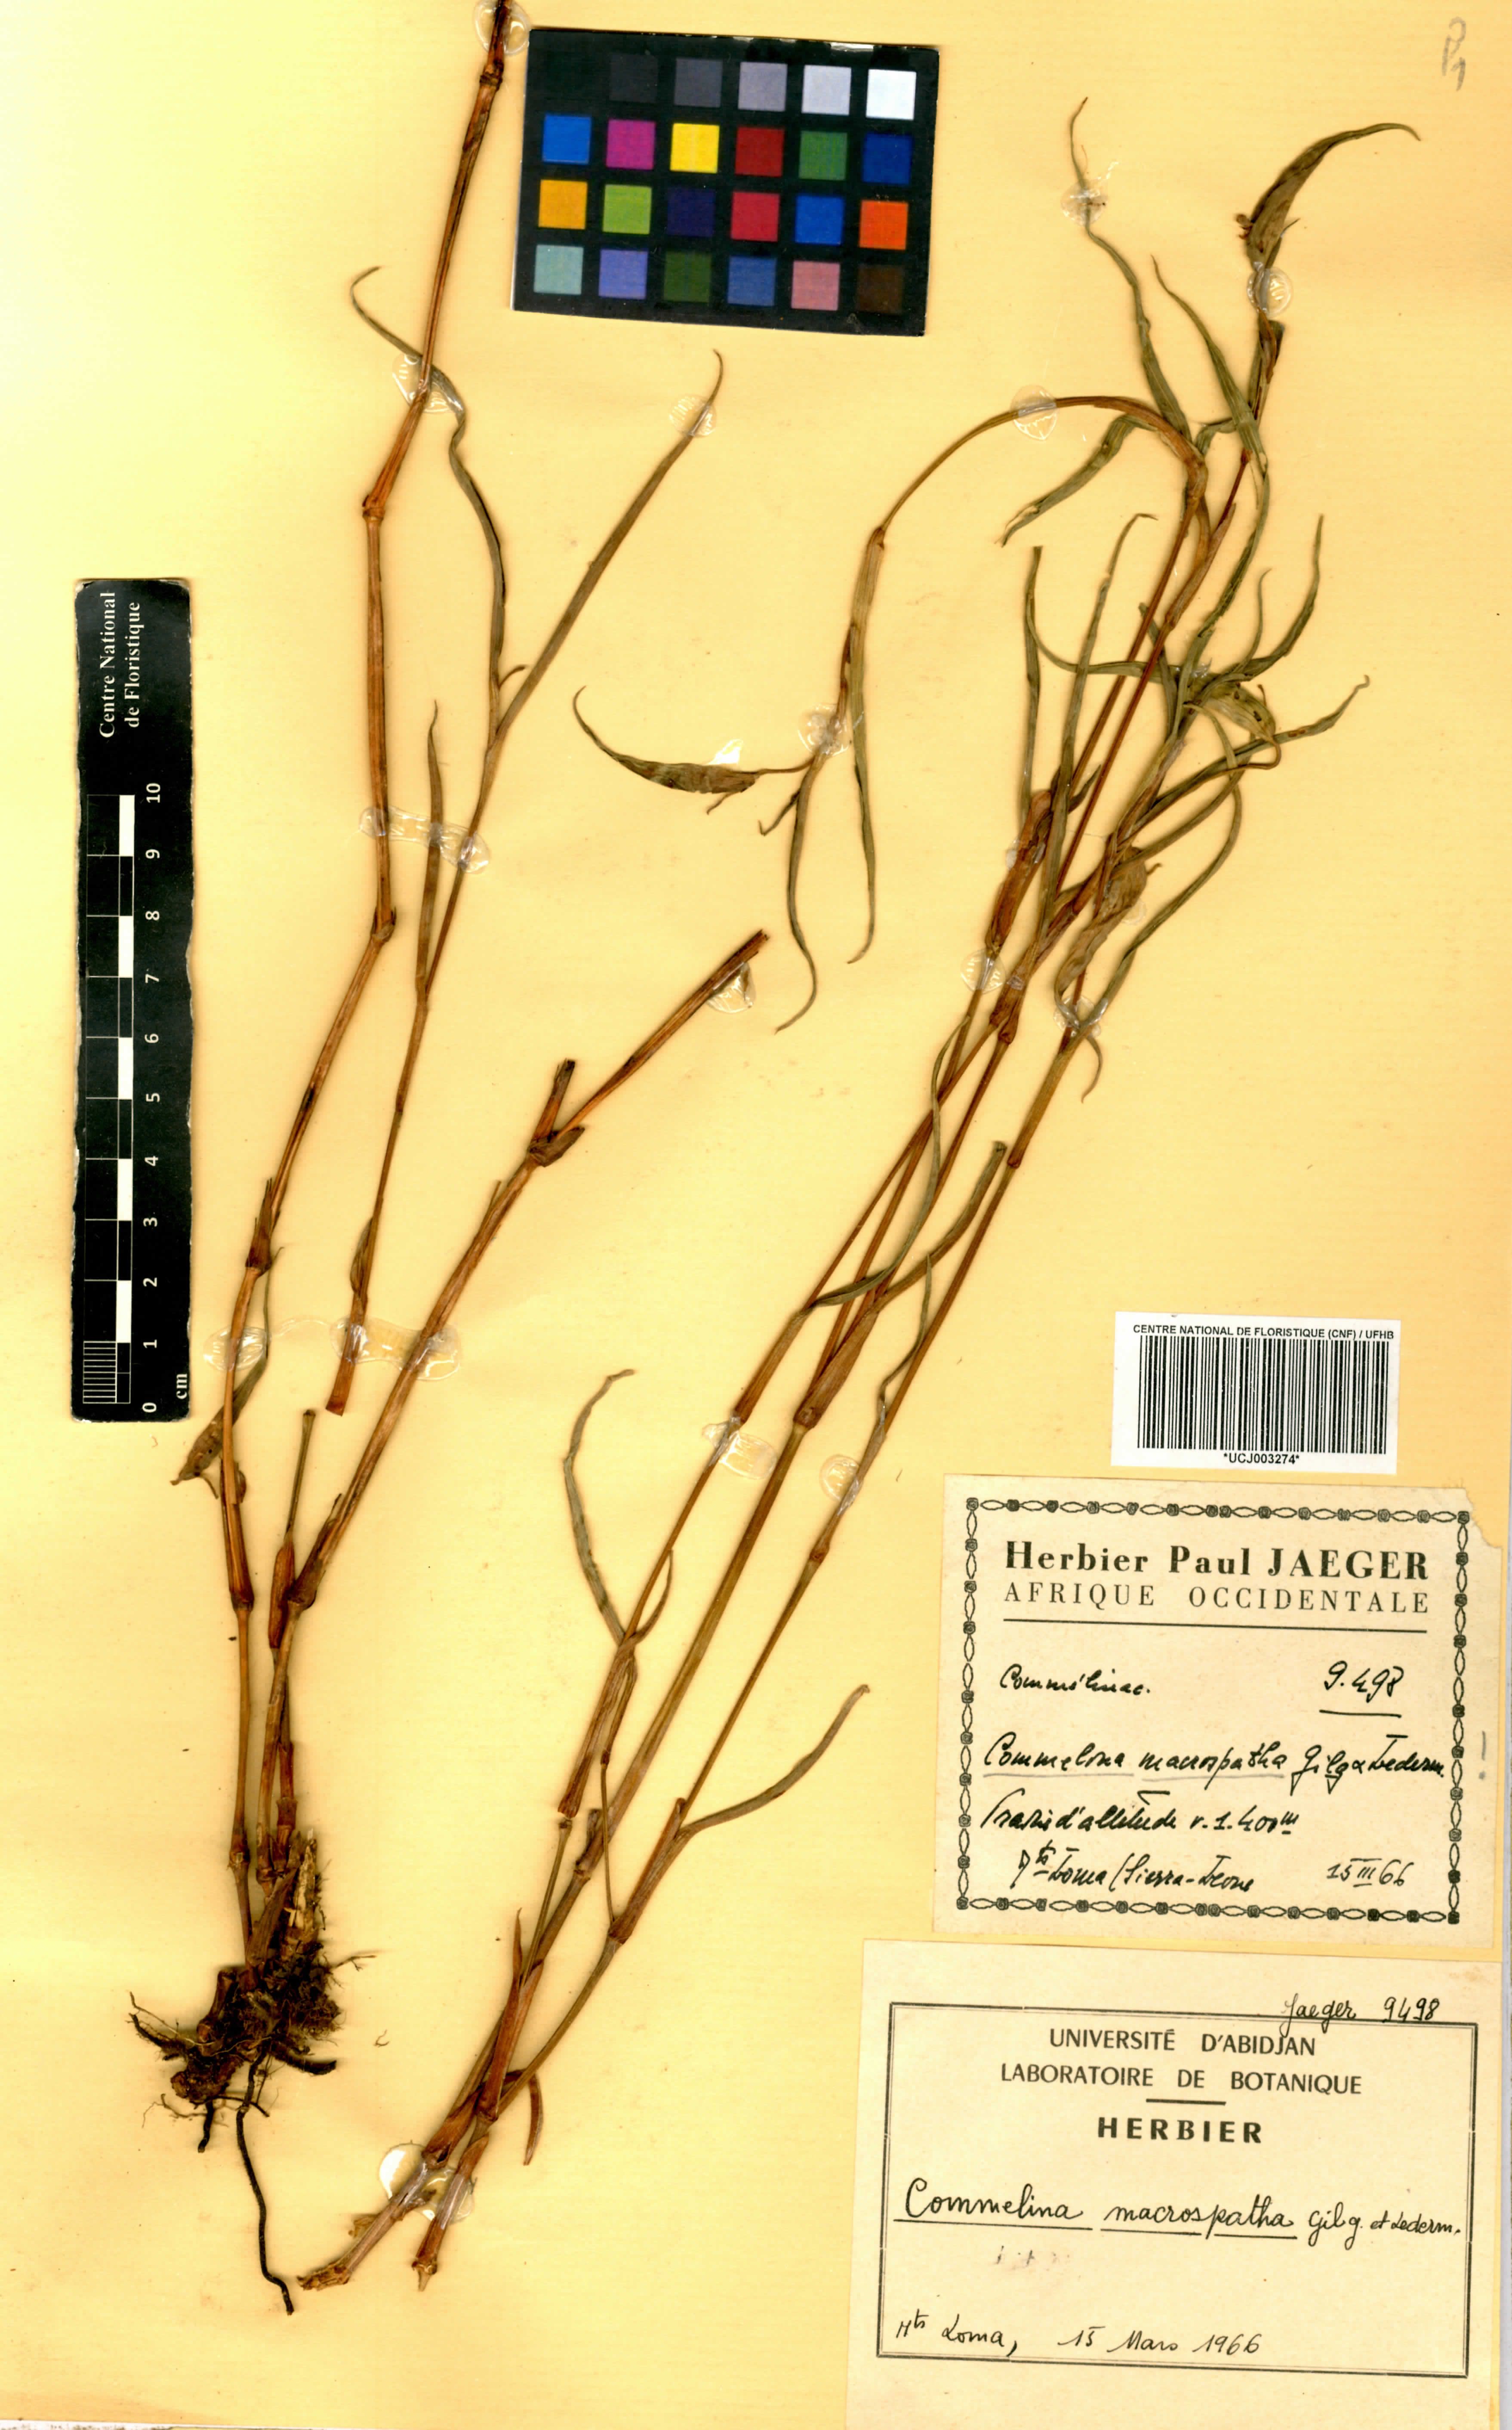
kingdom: Plantae
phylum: Tracheophyta
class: Liliopsida
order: Commelinales
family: Commelinaceae
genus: Commelina
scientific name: Commelina macrospatha
